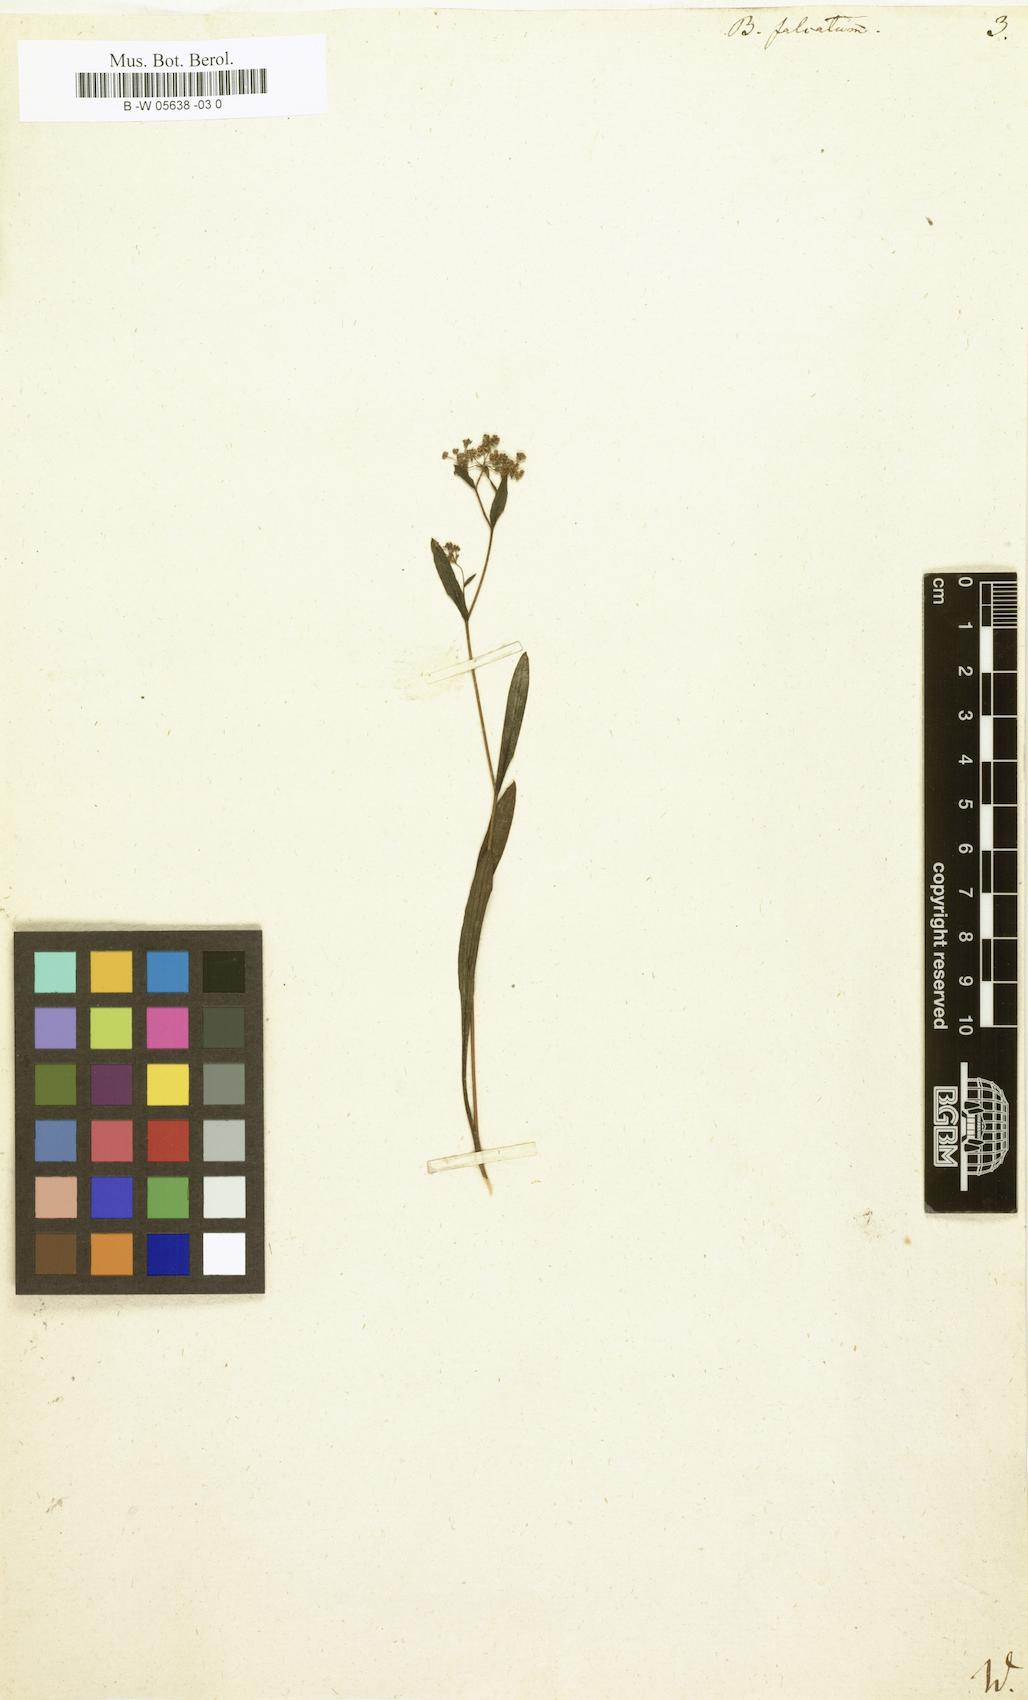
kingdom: Plantae
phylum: Tracheophyta
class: Magnoliopsida
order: Apiales
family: Apiaceae
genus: Bupleurum
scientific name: Bupleurum falcatum
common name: Sickle-leaved hare's-ear
